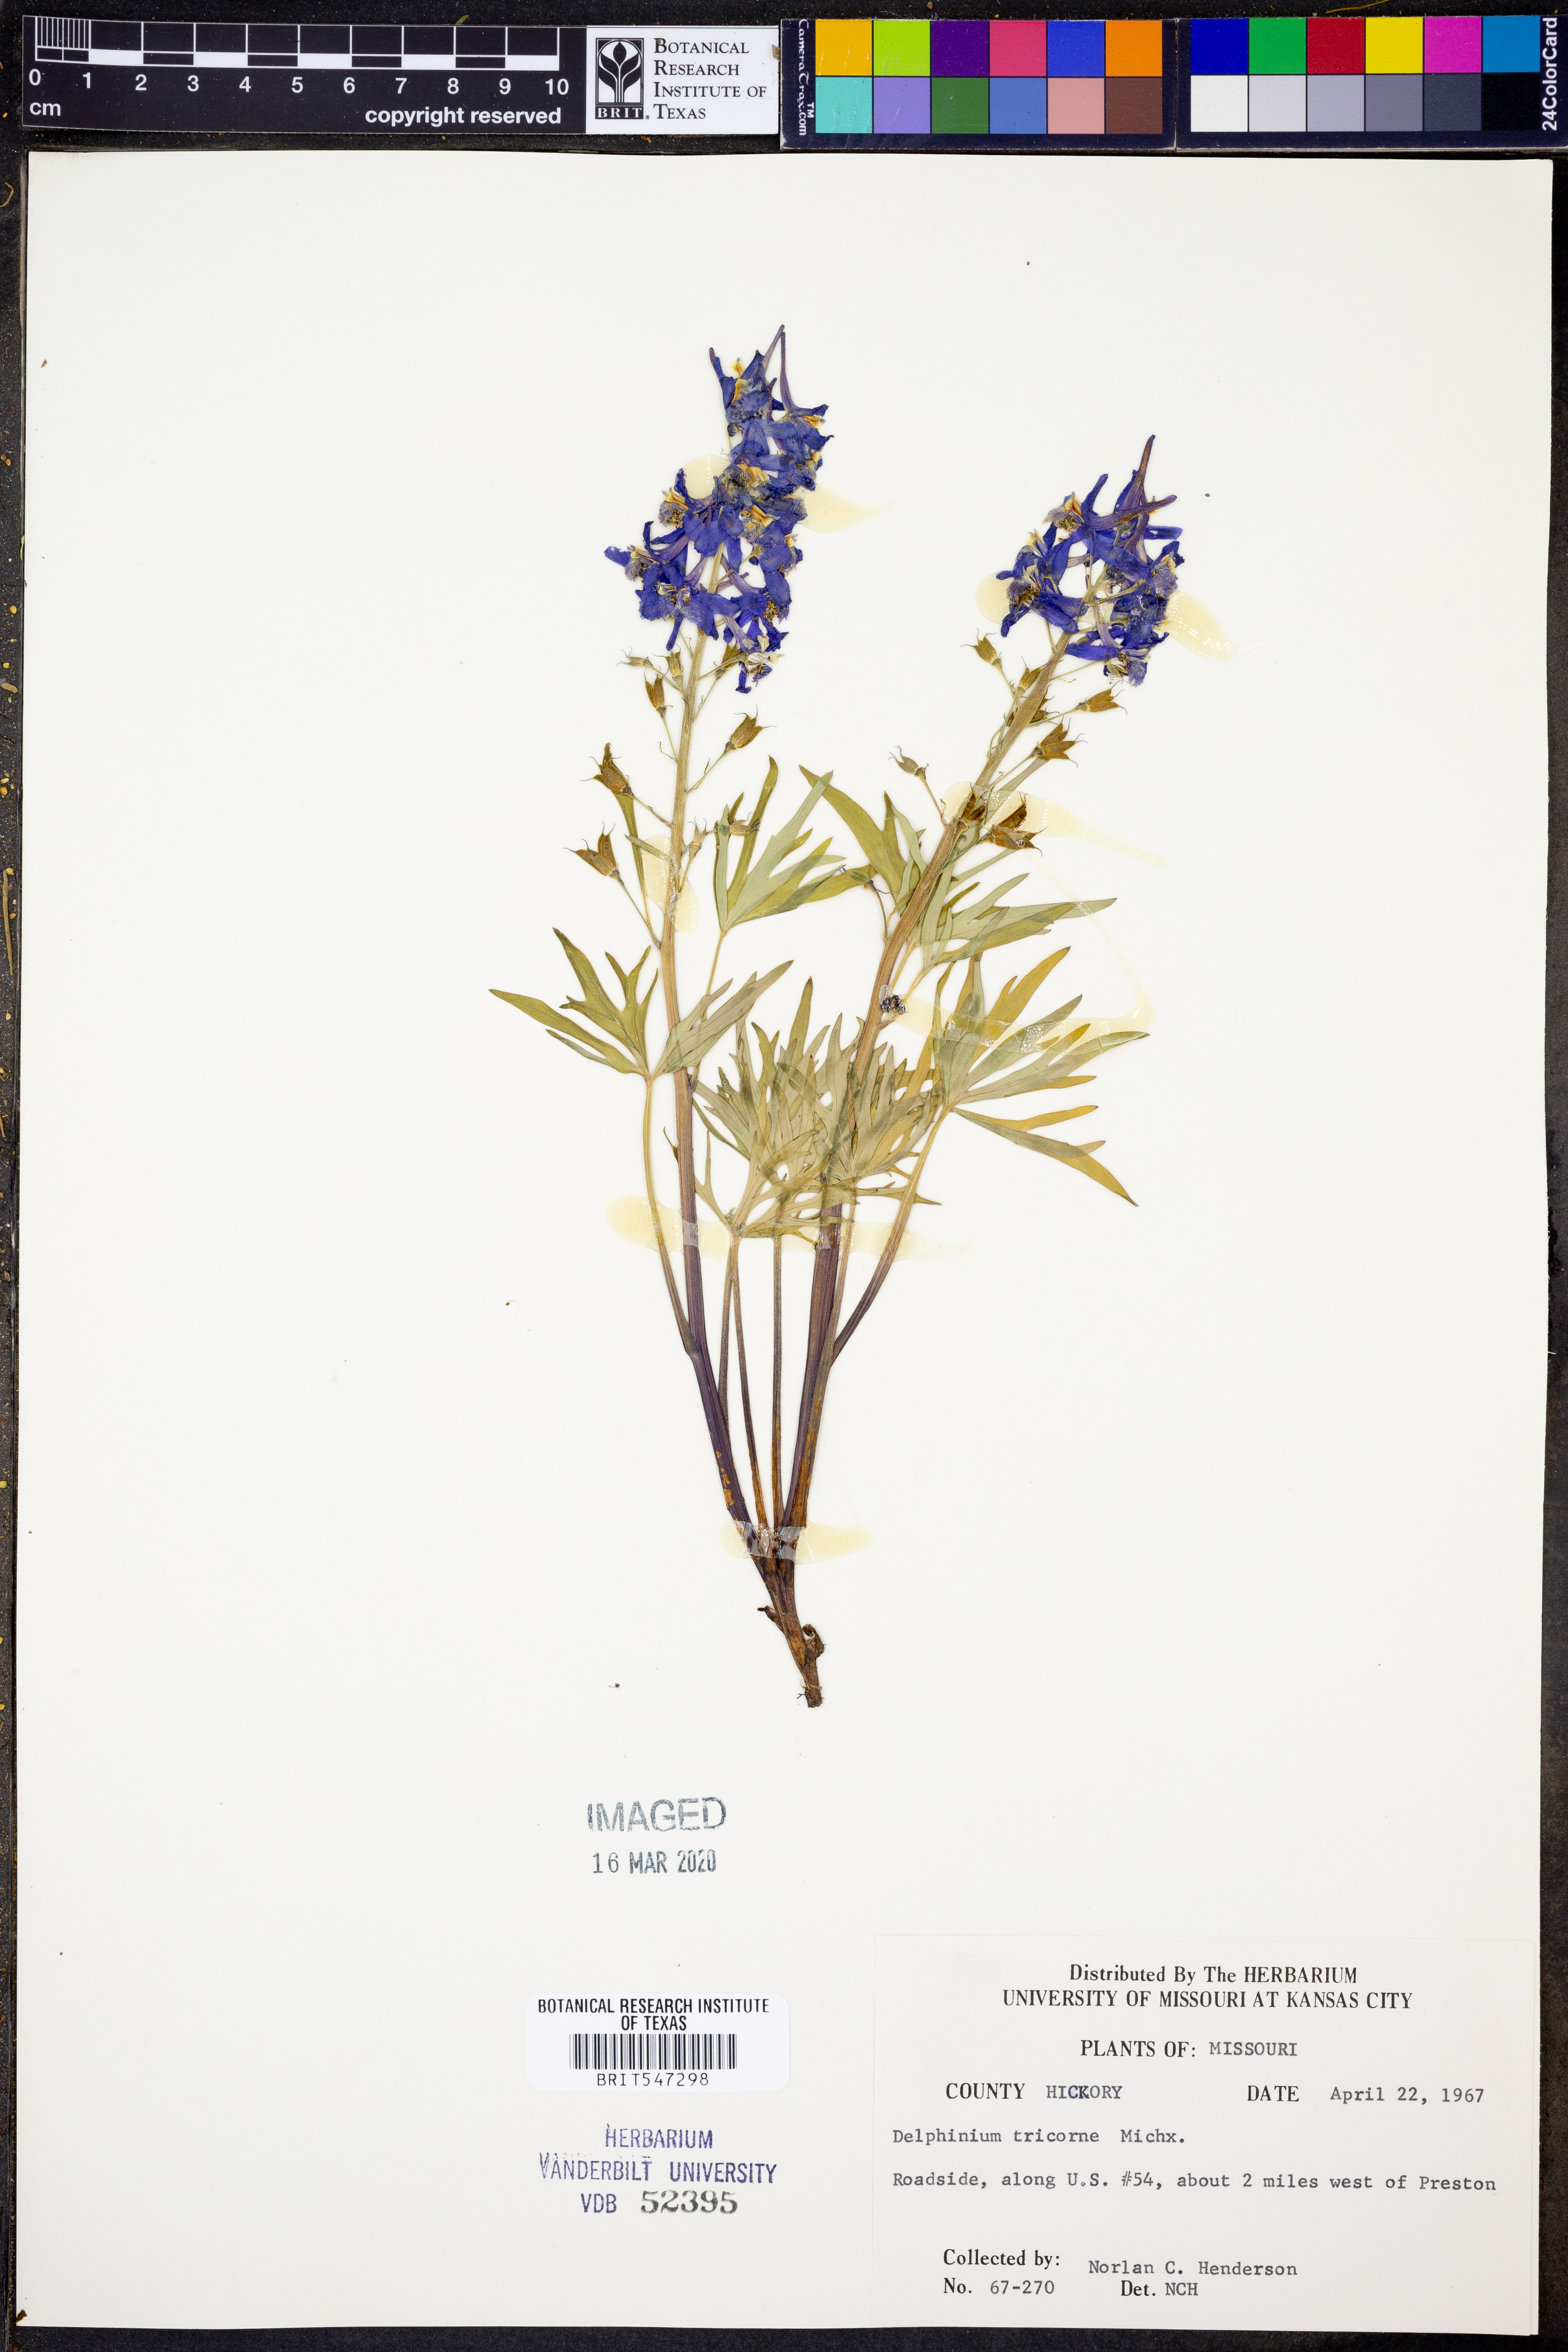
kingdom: Plantae
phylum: Tracheophyta
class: Magnoliopsida
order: Ranunculales
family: Ranunculaceae
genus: Delphinium
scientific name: Delphinium tricorne
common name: Dwarf larkspur
